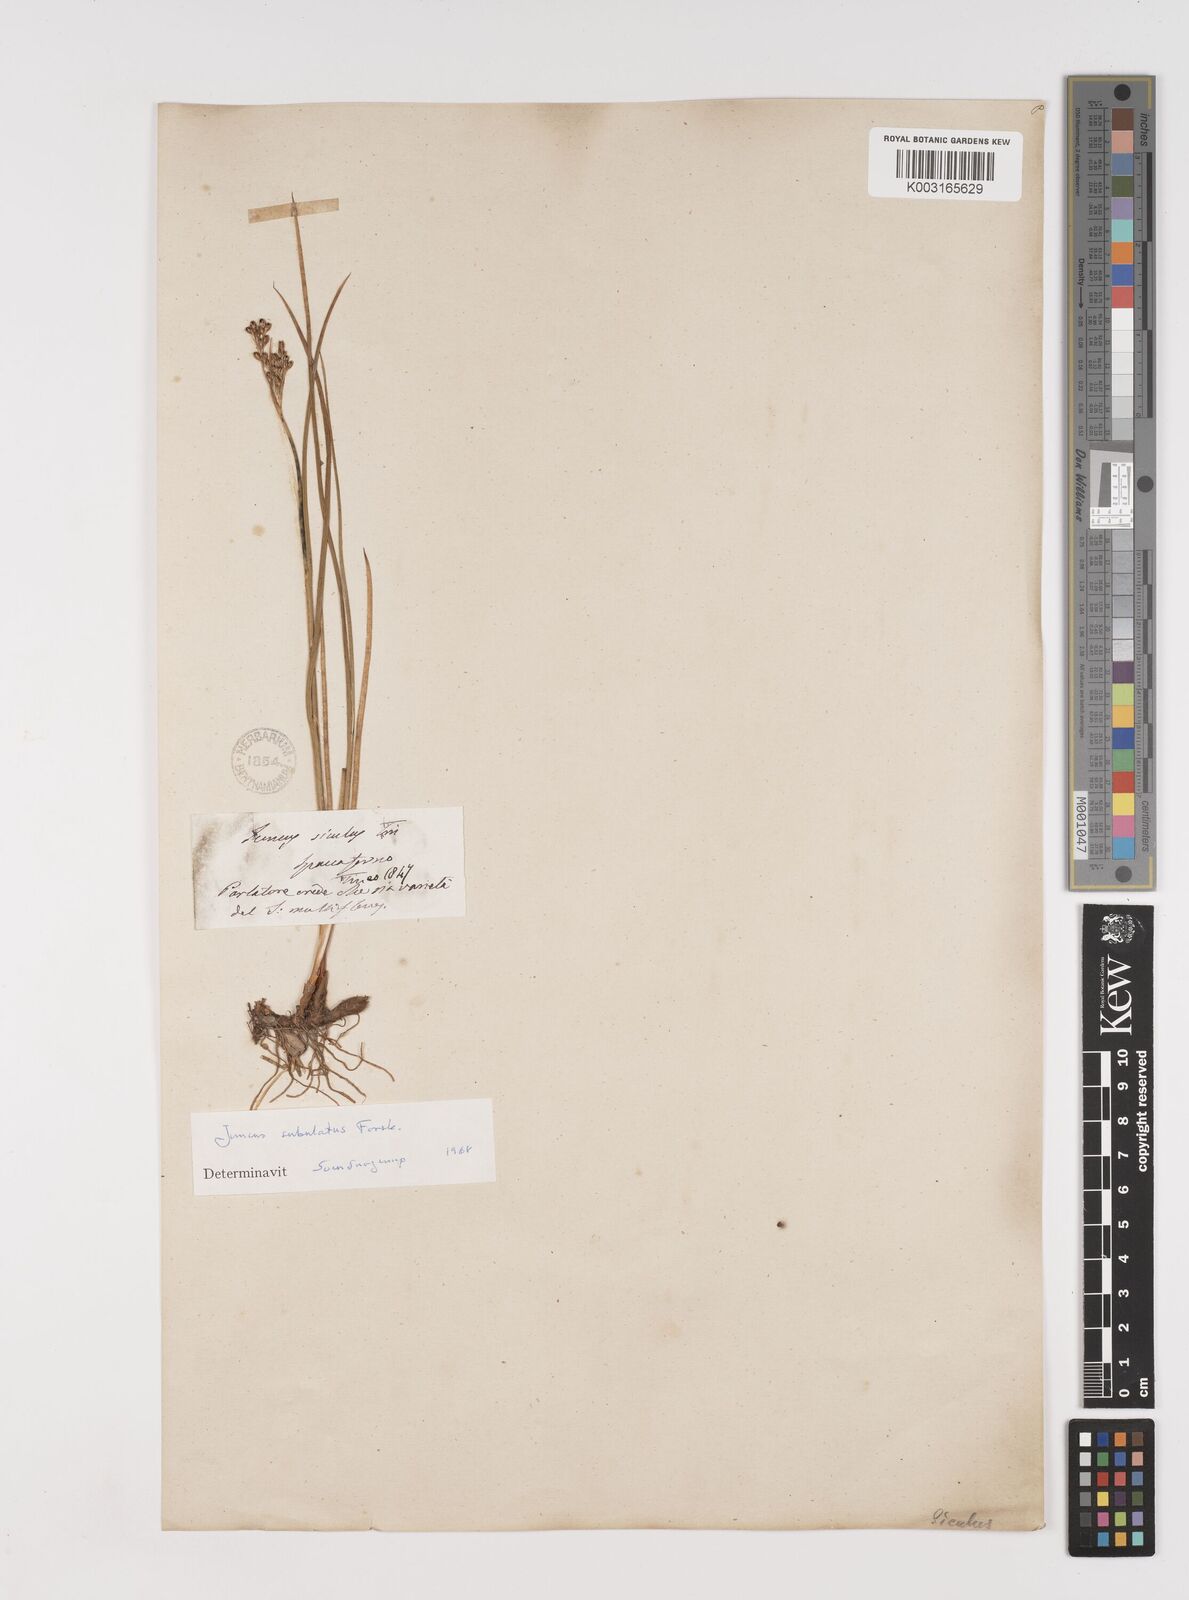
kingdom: Plantae
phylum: Tracheophyta
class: Liliopsida
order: Poales
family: Juncaceae
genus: Juncus
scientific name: Juncus subulatus
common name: Somerset rush
